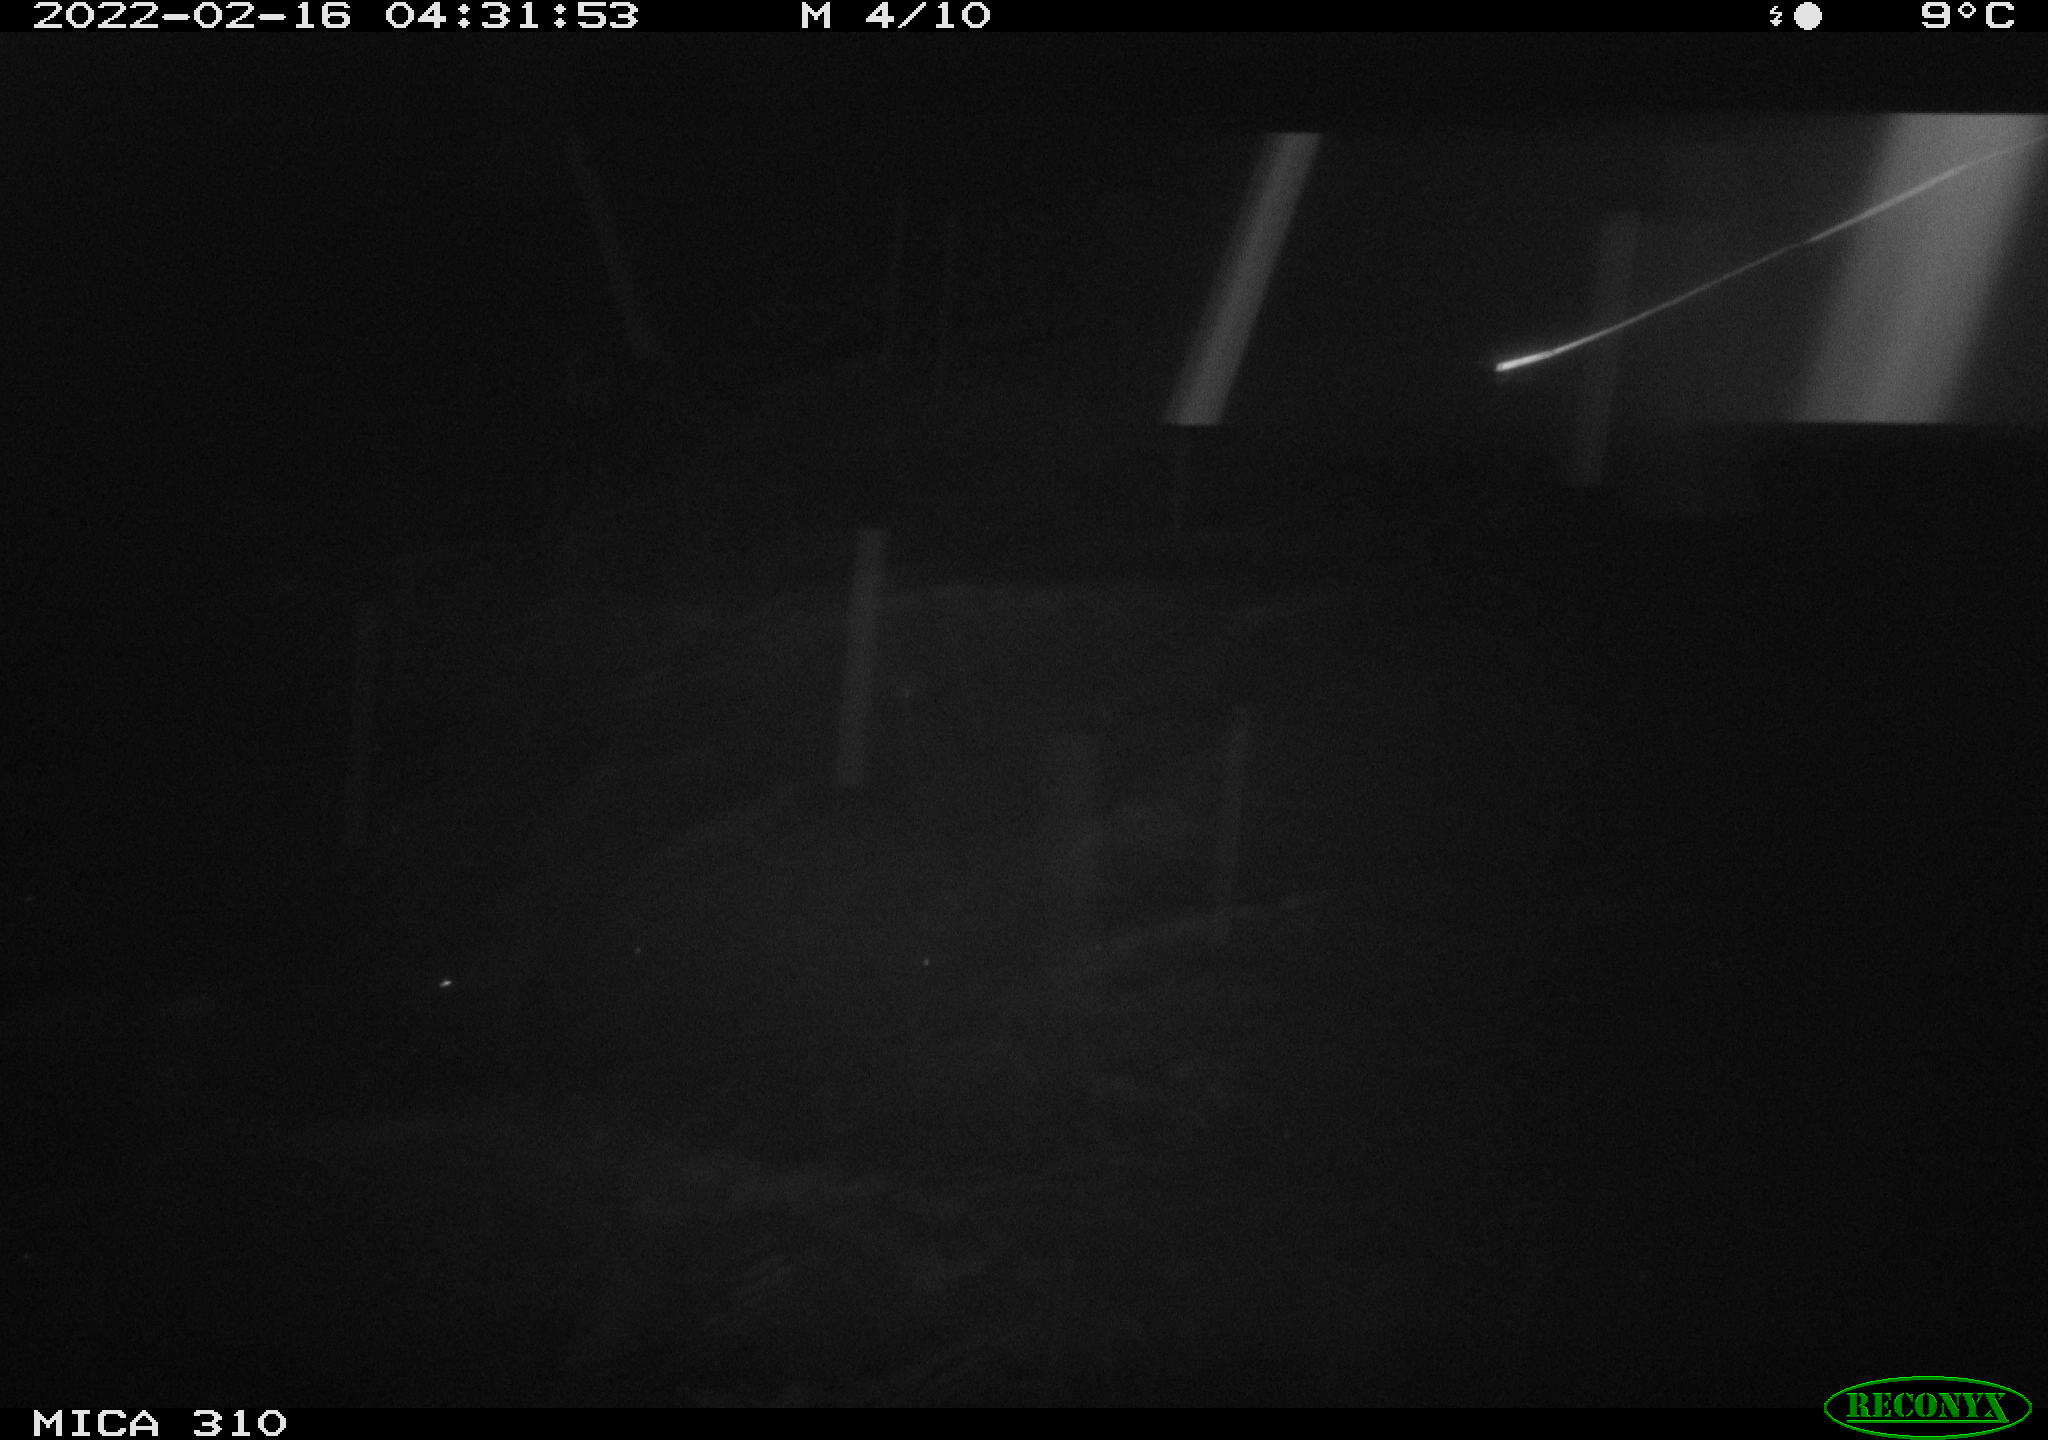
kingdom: Animalia
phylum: Chordata
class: Mammalia
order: Rodentia
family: Cricetidae
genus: Ondatra
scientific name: Ondatra zibethicus
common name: Muskrat
